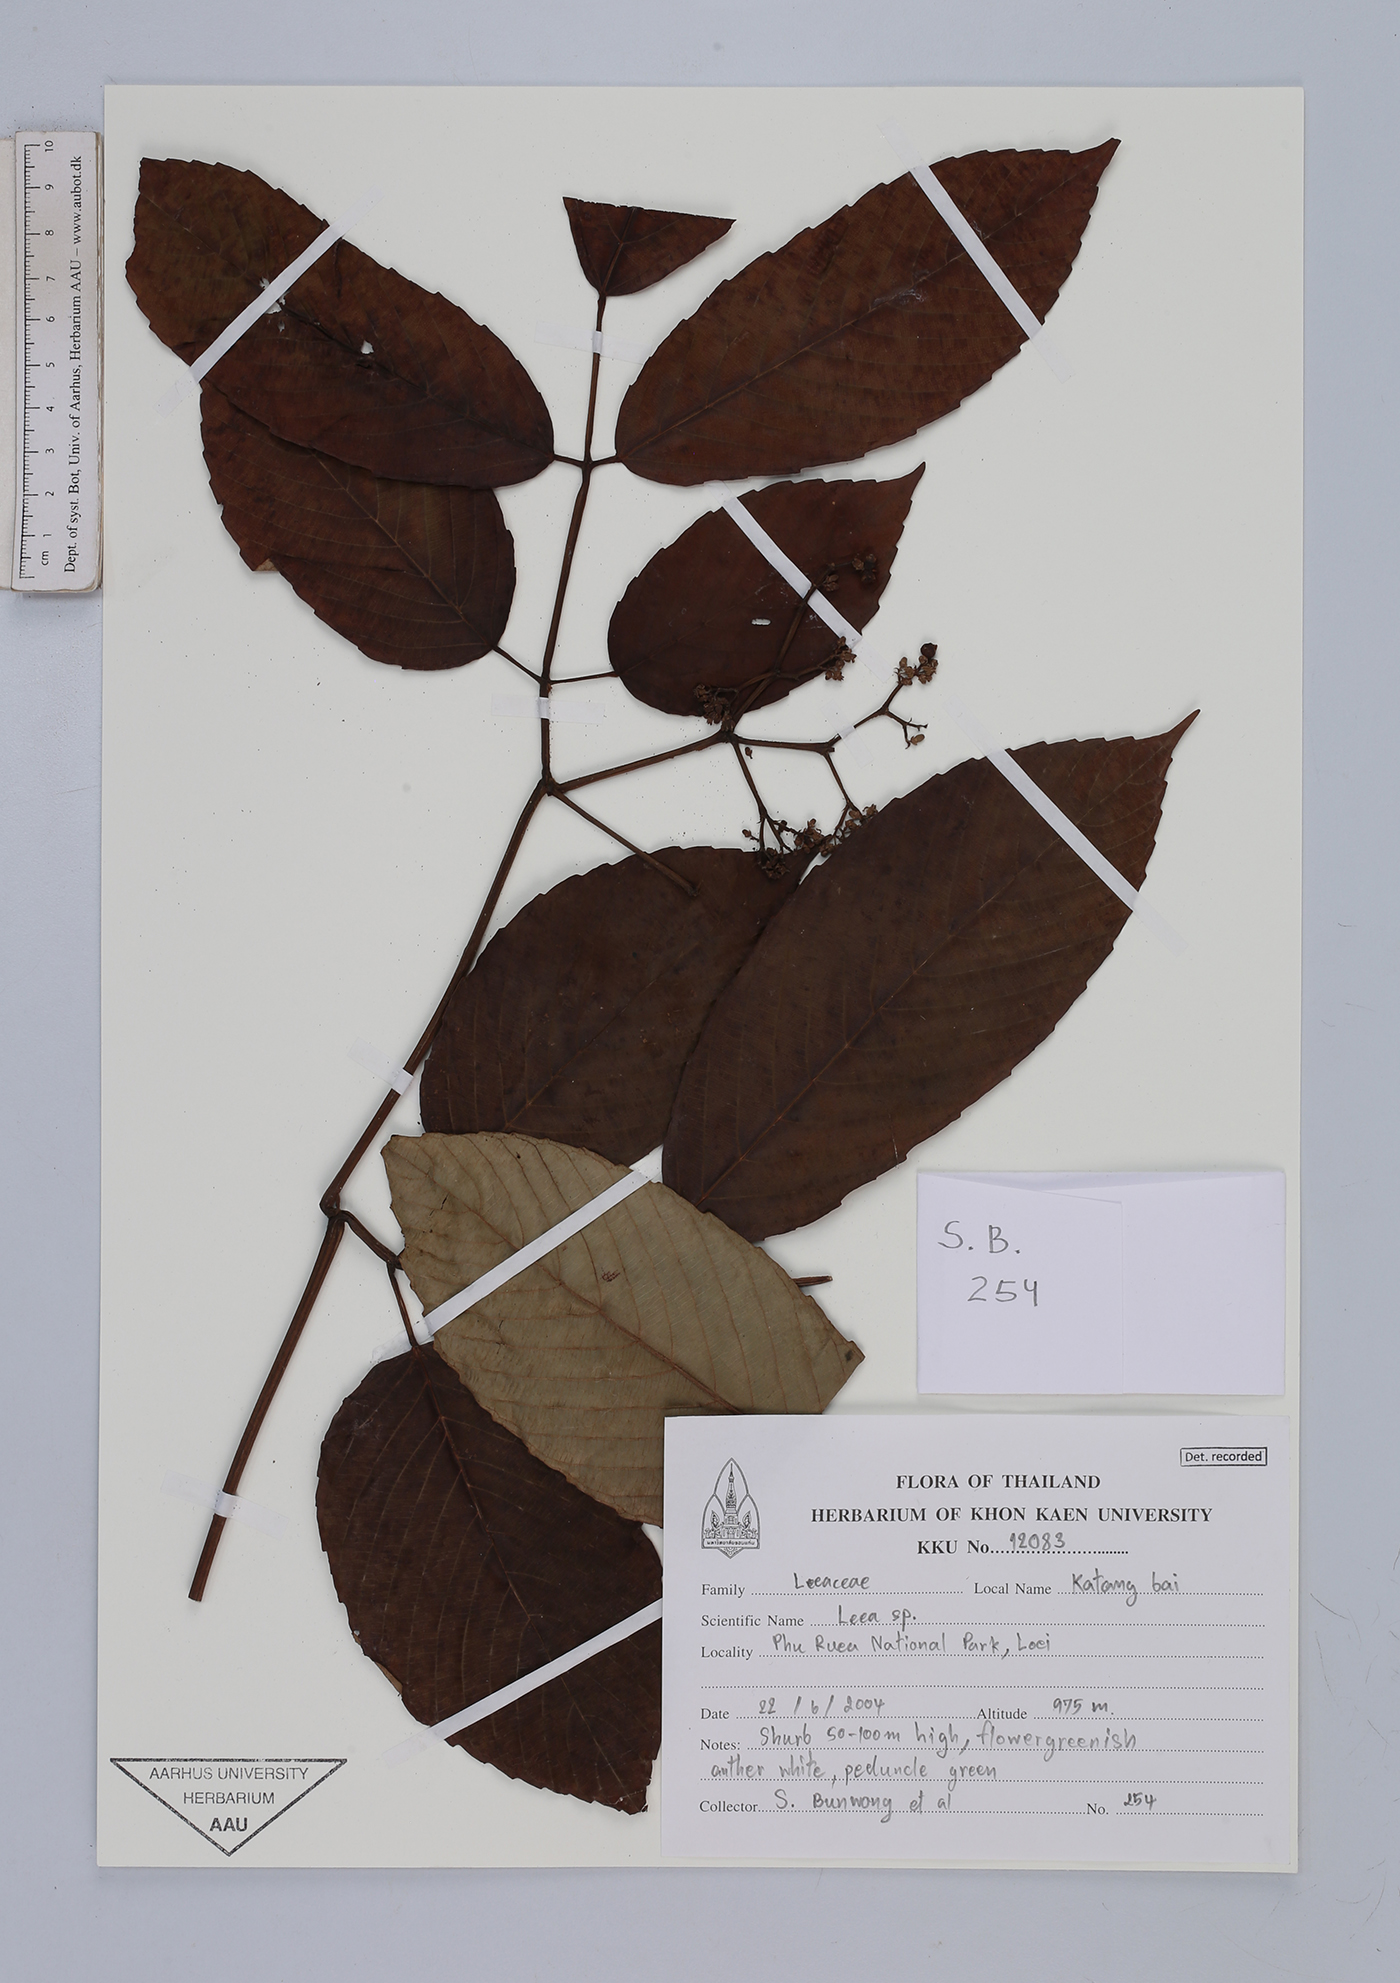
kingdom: Plantae
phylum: Tracheophyta
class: Magnoliopsida
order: Vitales
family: Vitaceae
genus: Leea
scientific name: Leea
